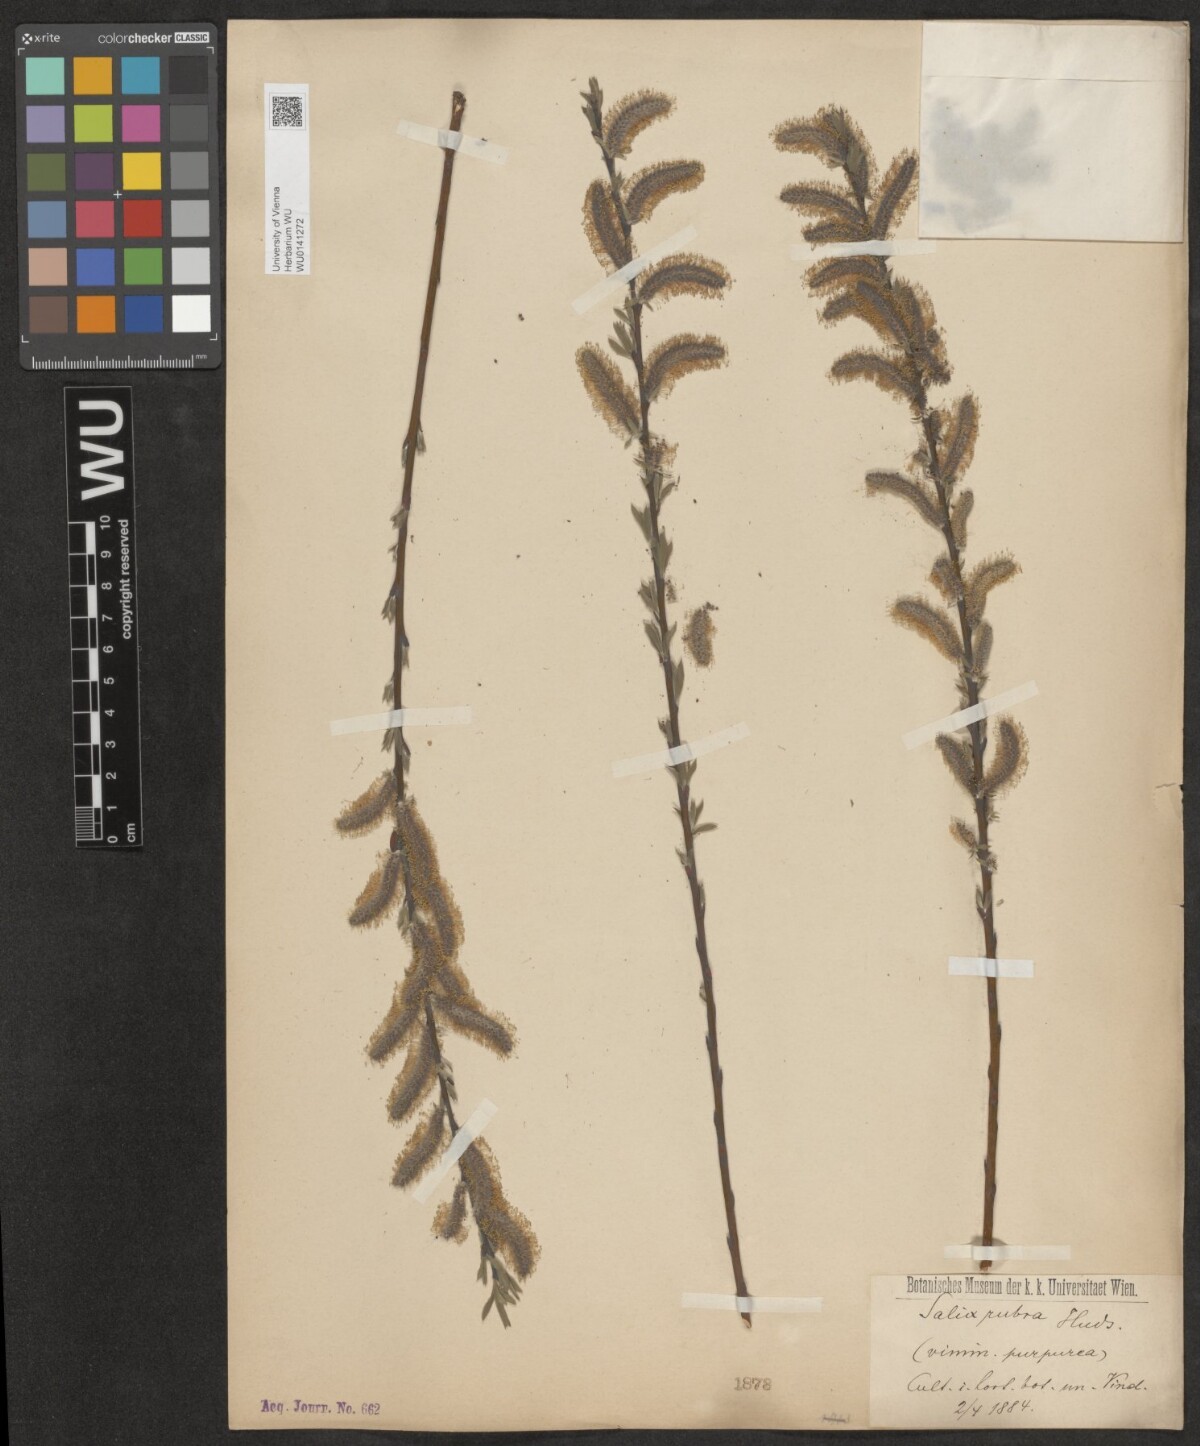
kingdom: Plantae
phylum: Tracheophyta
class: Magnoliopsida
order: Malpighiales
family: Salicaceae
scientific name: Salicaceae
